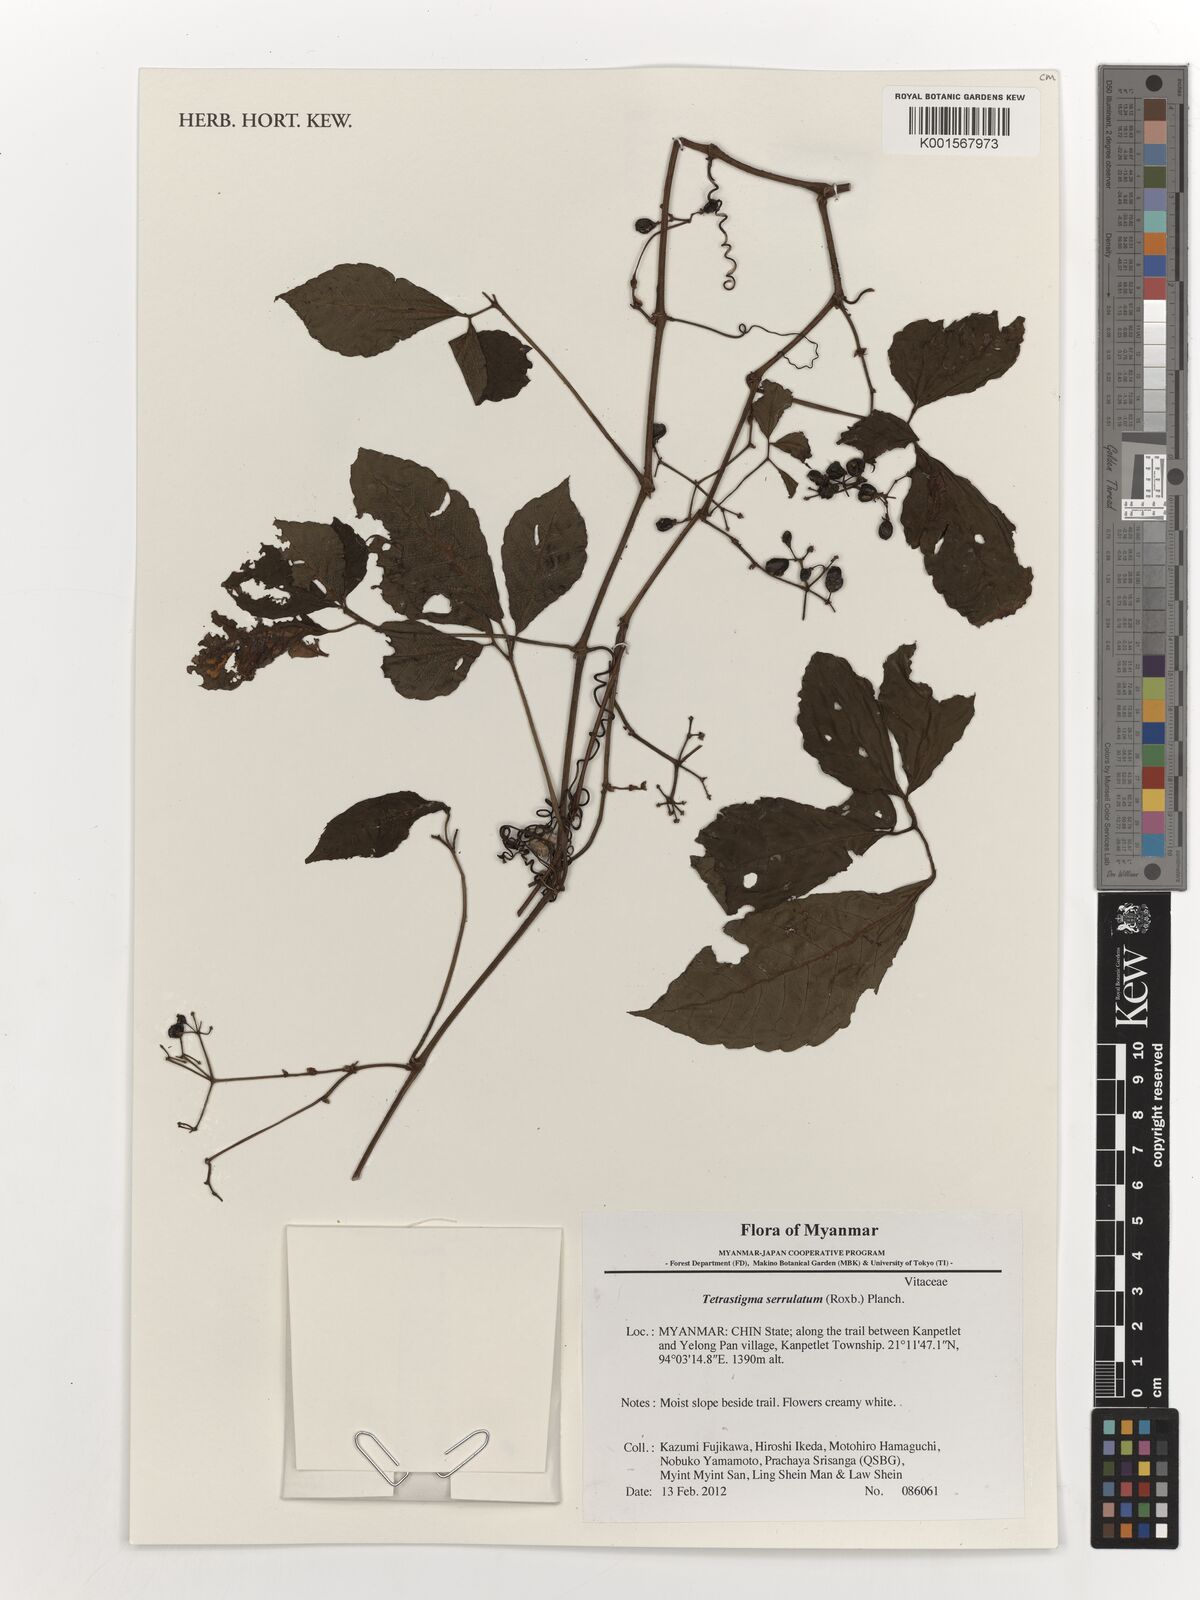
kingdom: Plantae
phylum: Tracheophyta
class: Magnoliopsida
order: Vitales
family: Vitaceae
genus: Tetrastigma
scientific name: Tetrastigma serrulatum
